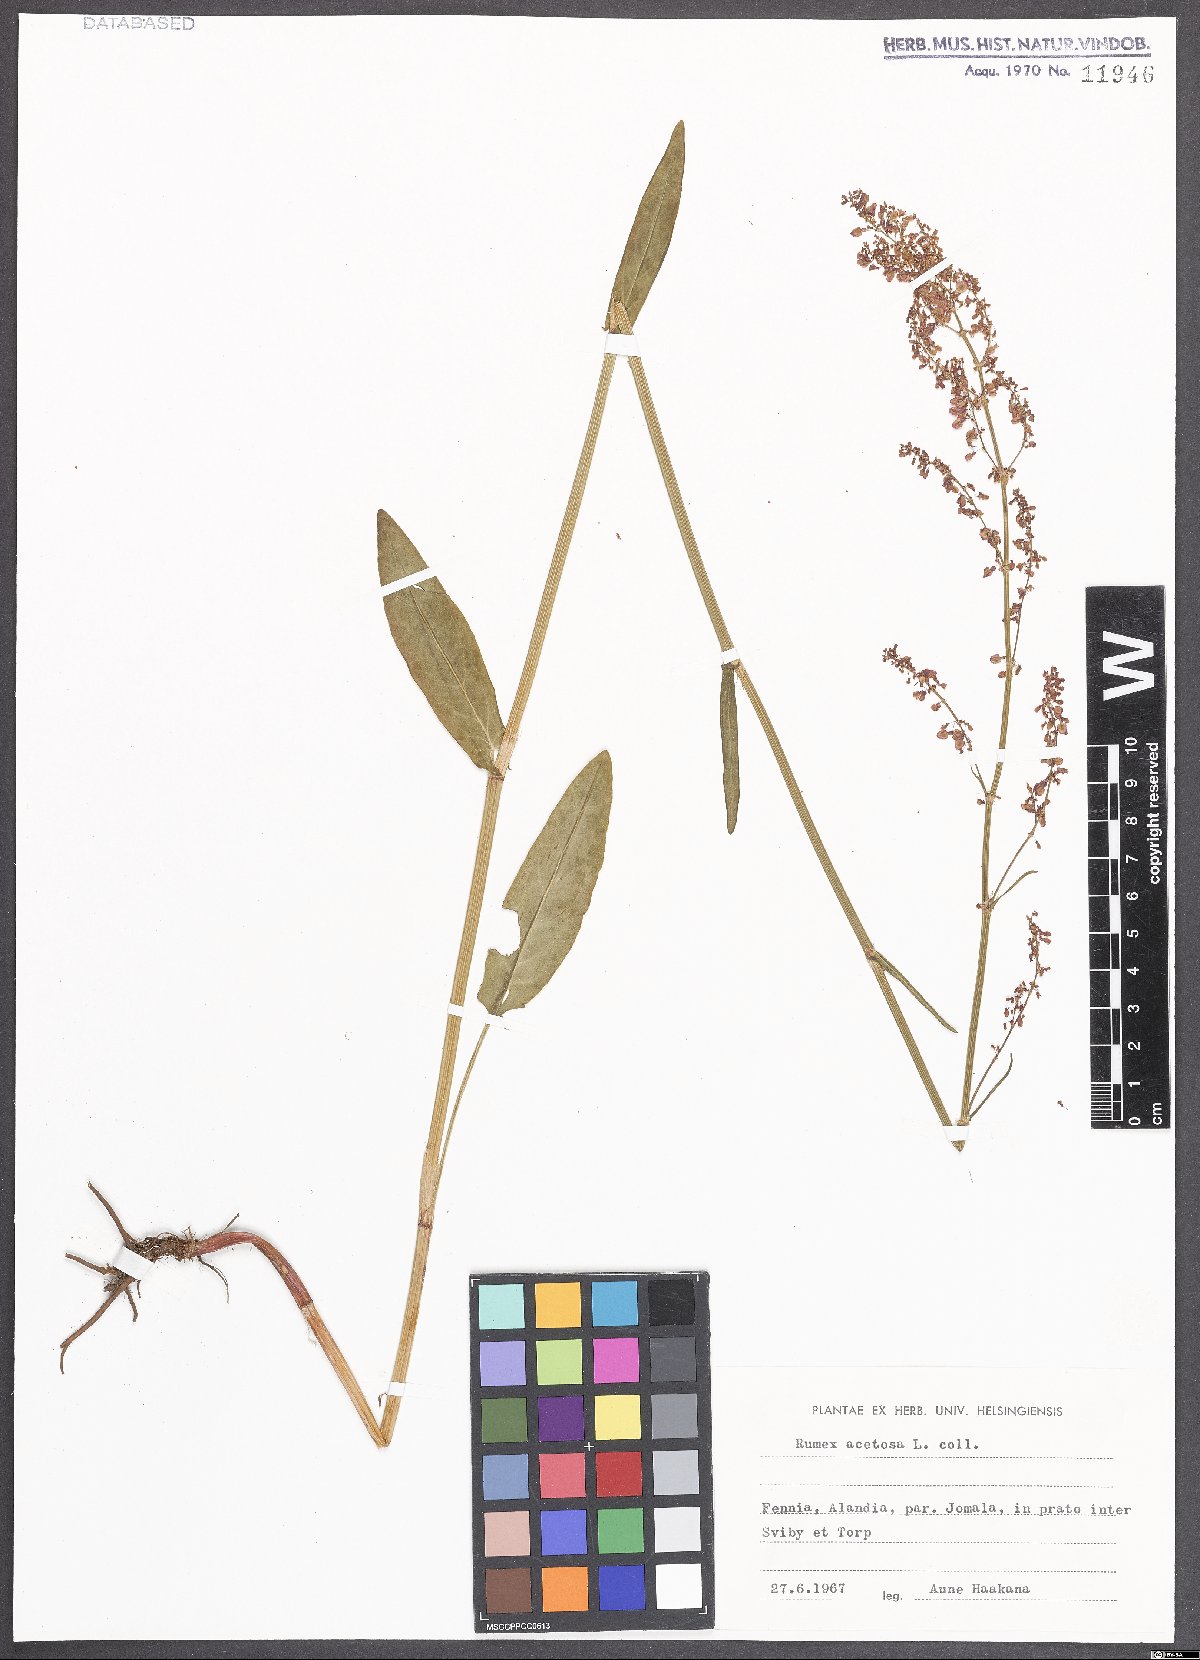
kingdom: Plantae
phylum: Tracheophyta
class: Magnoliopsida
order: Caryophyllales
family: Polygonaceae
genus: Rumex
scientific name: Rumex acetosa
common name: Garden sorrel
